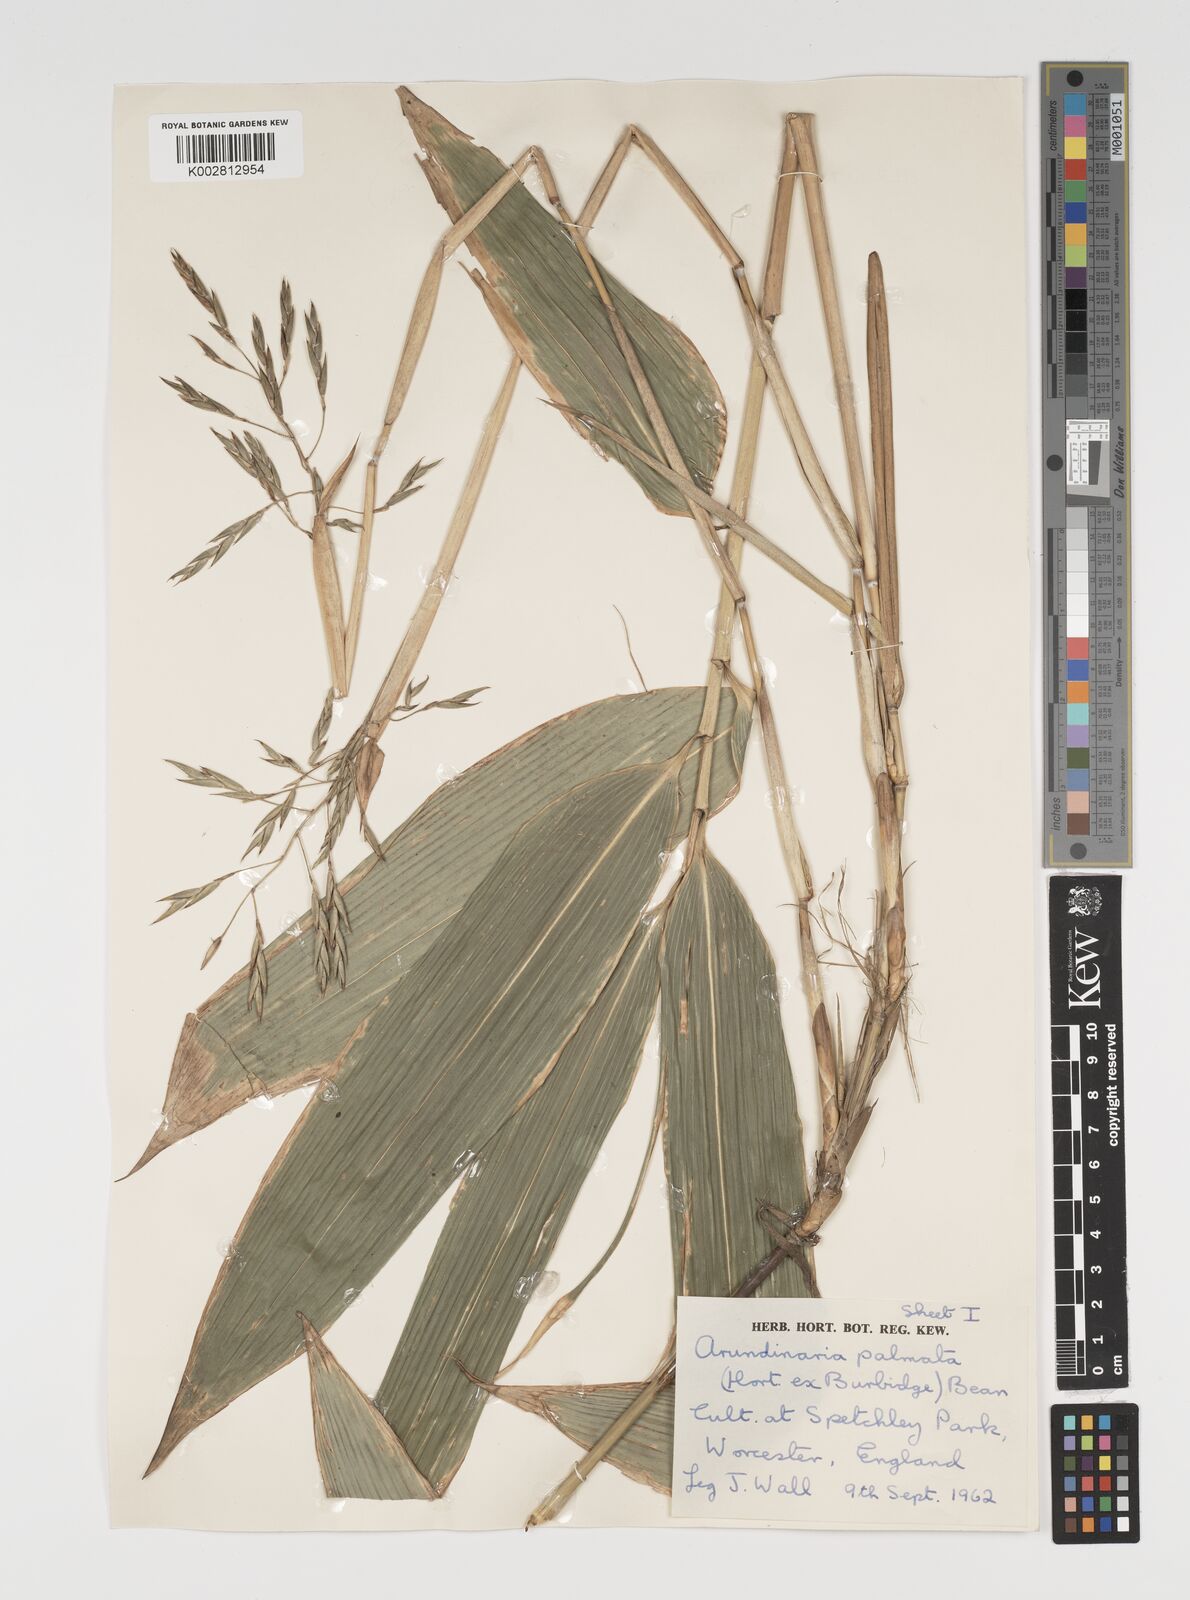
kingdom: Plantae
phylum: Tracheophyta
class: Liliopsida
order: Poales
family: Poaceae
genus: Sasa
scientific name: Sasa palmata
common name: Broad-leaved bamboo
